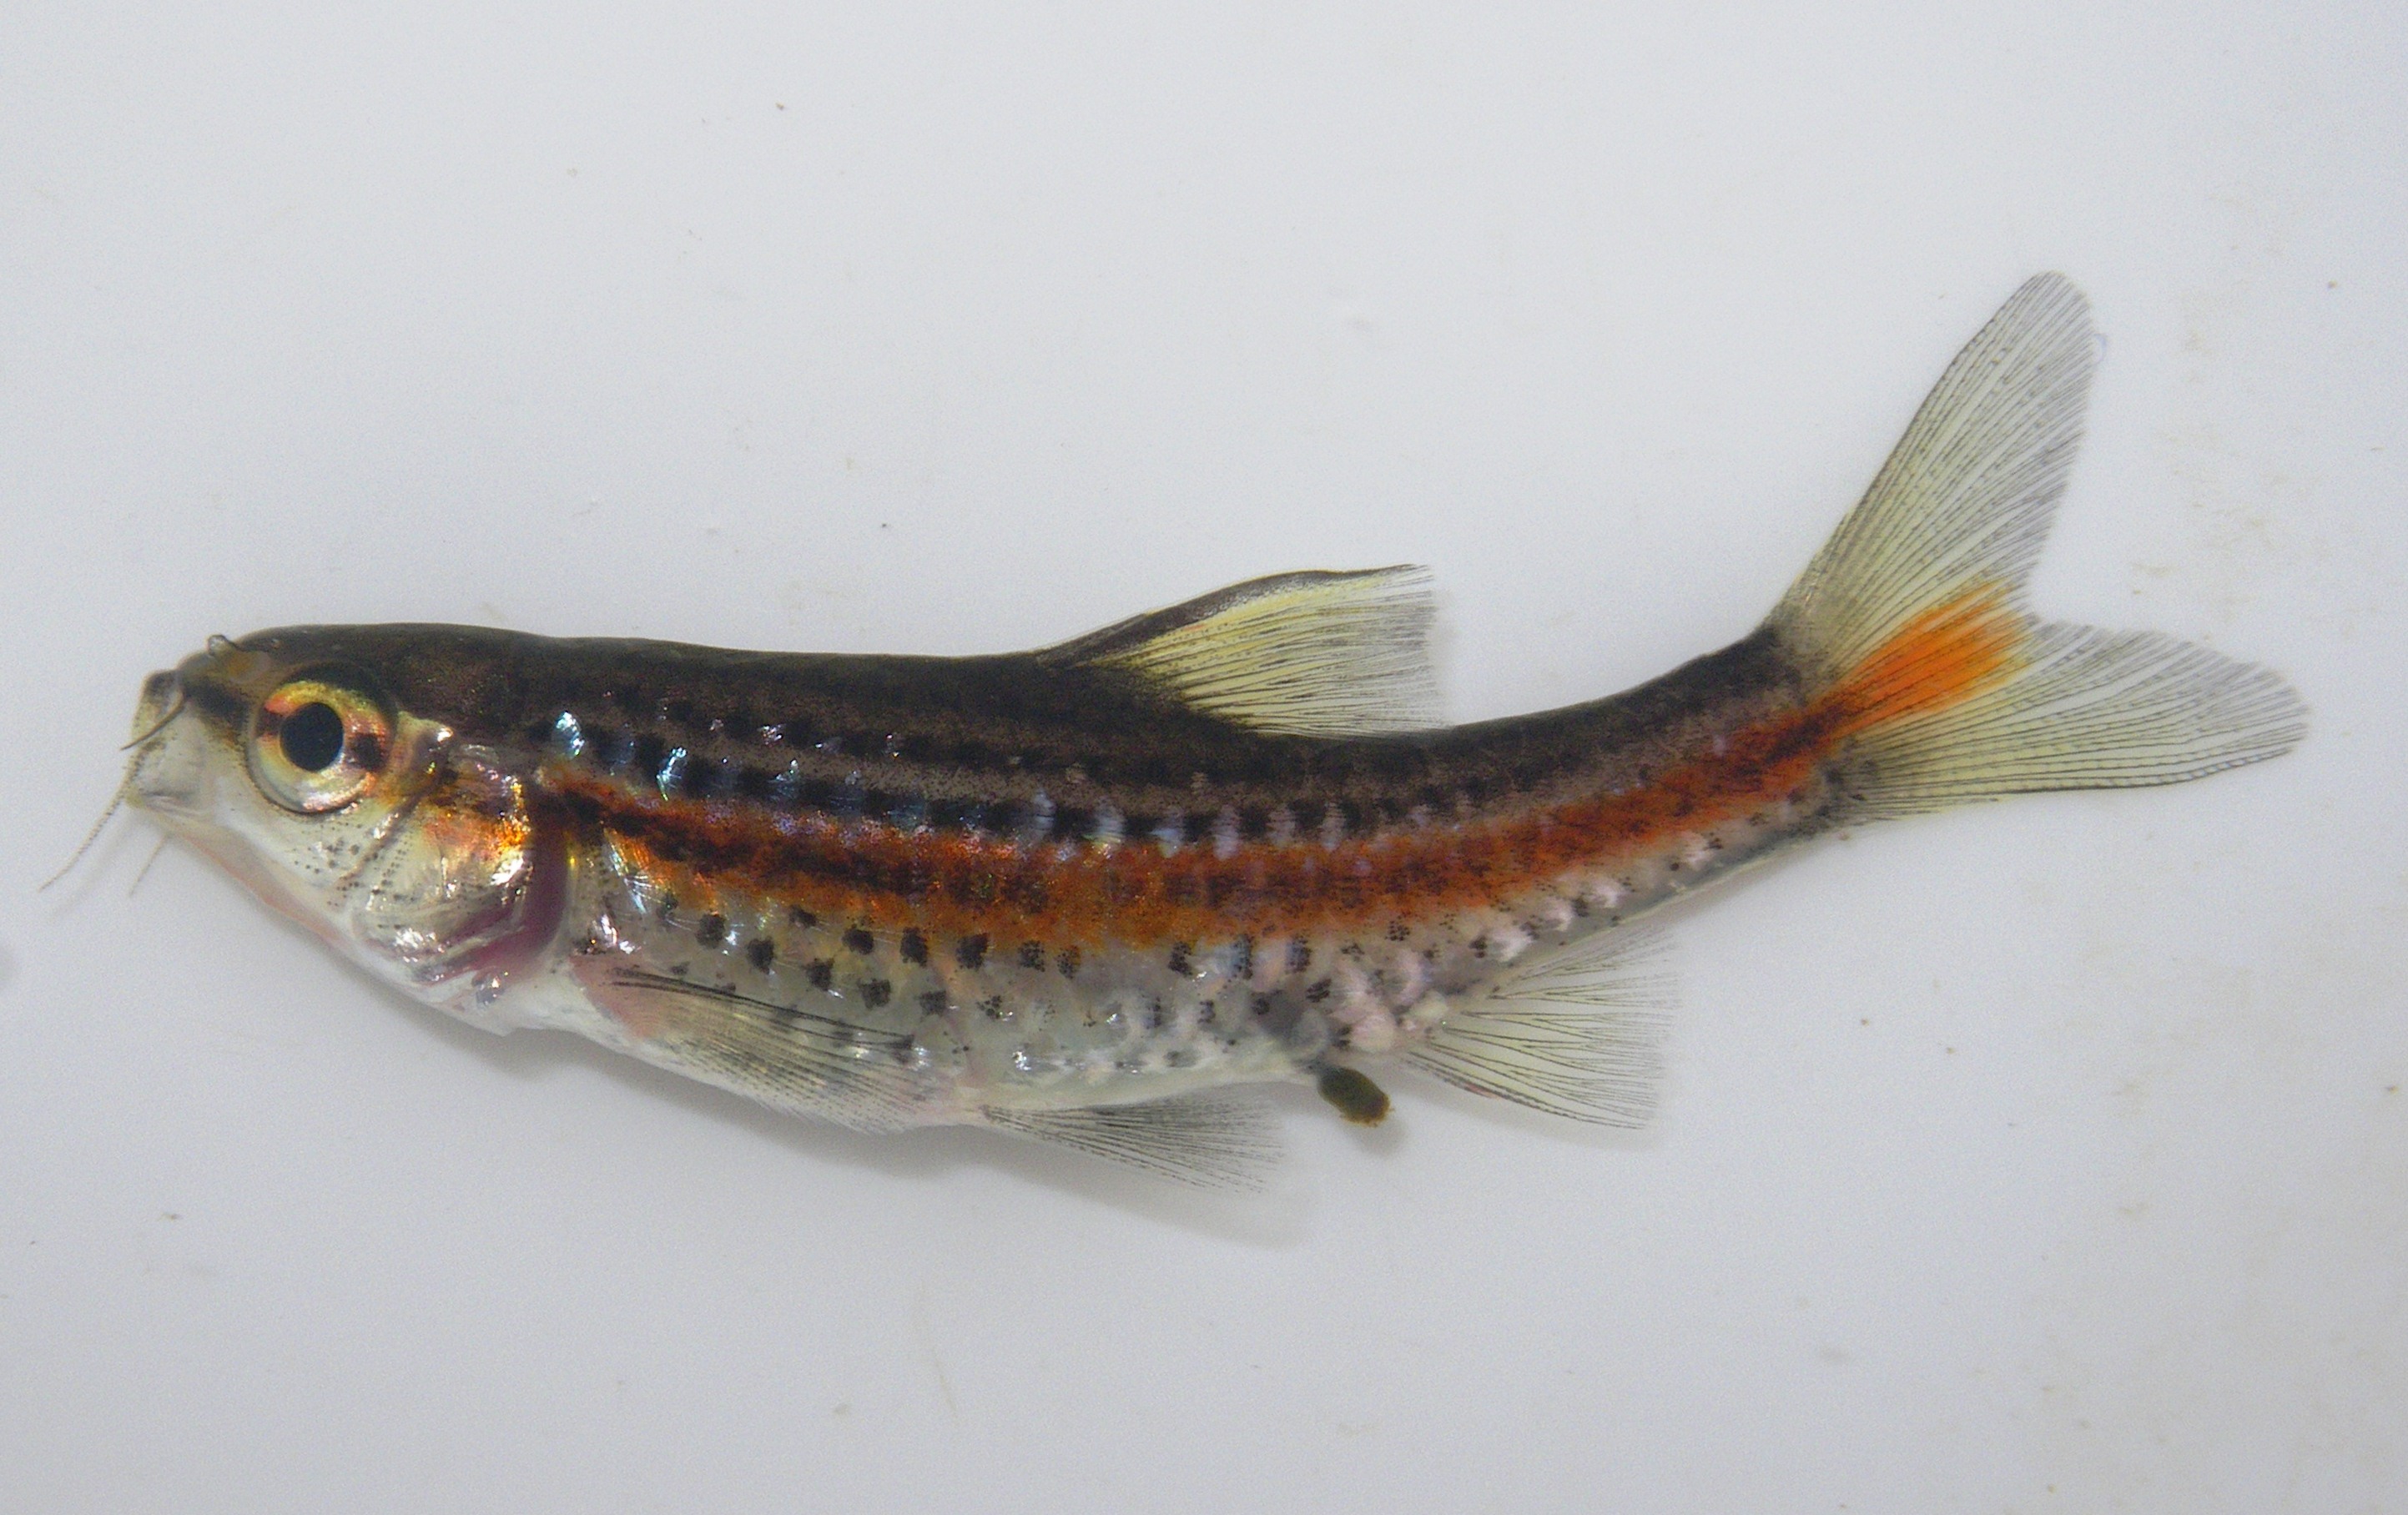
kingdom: Animalia
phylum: Chordata
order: Cypriniformes
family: Cyprinidae
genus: Barbus
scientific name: Barbus
